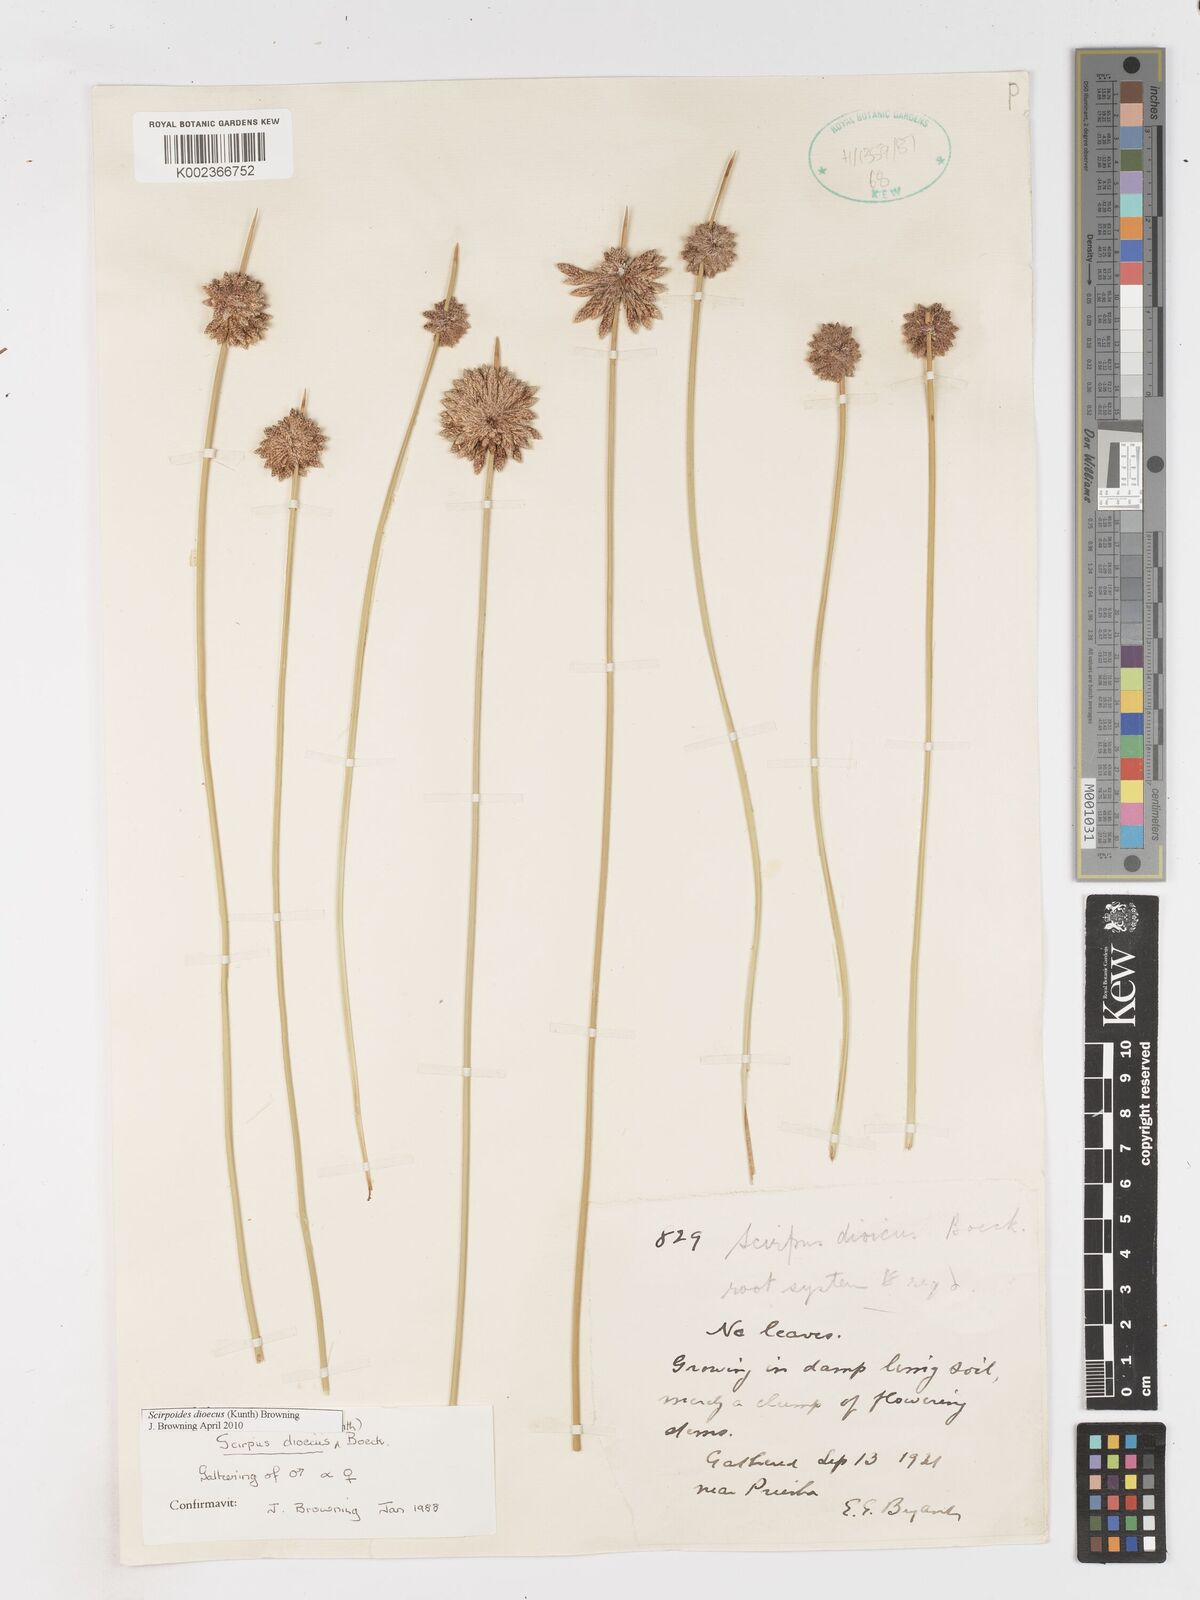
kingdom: Plantae
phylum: Tracheophyta
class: Liliopsida
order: Poales
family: Cyperaceae
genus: Afroscirpoides
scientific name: Afroscirpoides dioeca
